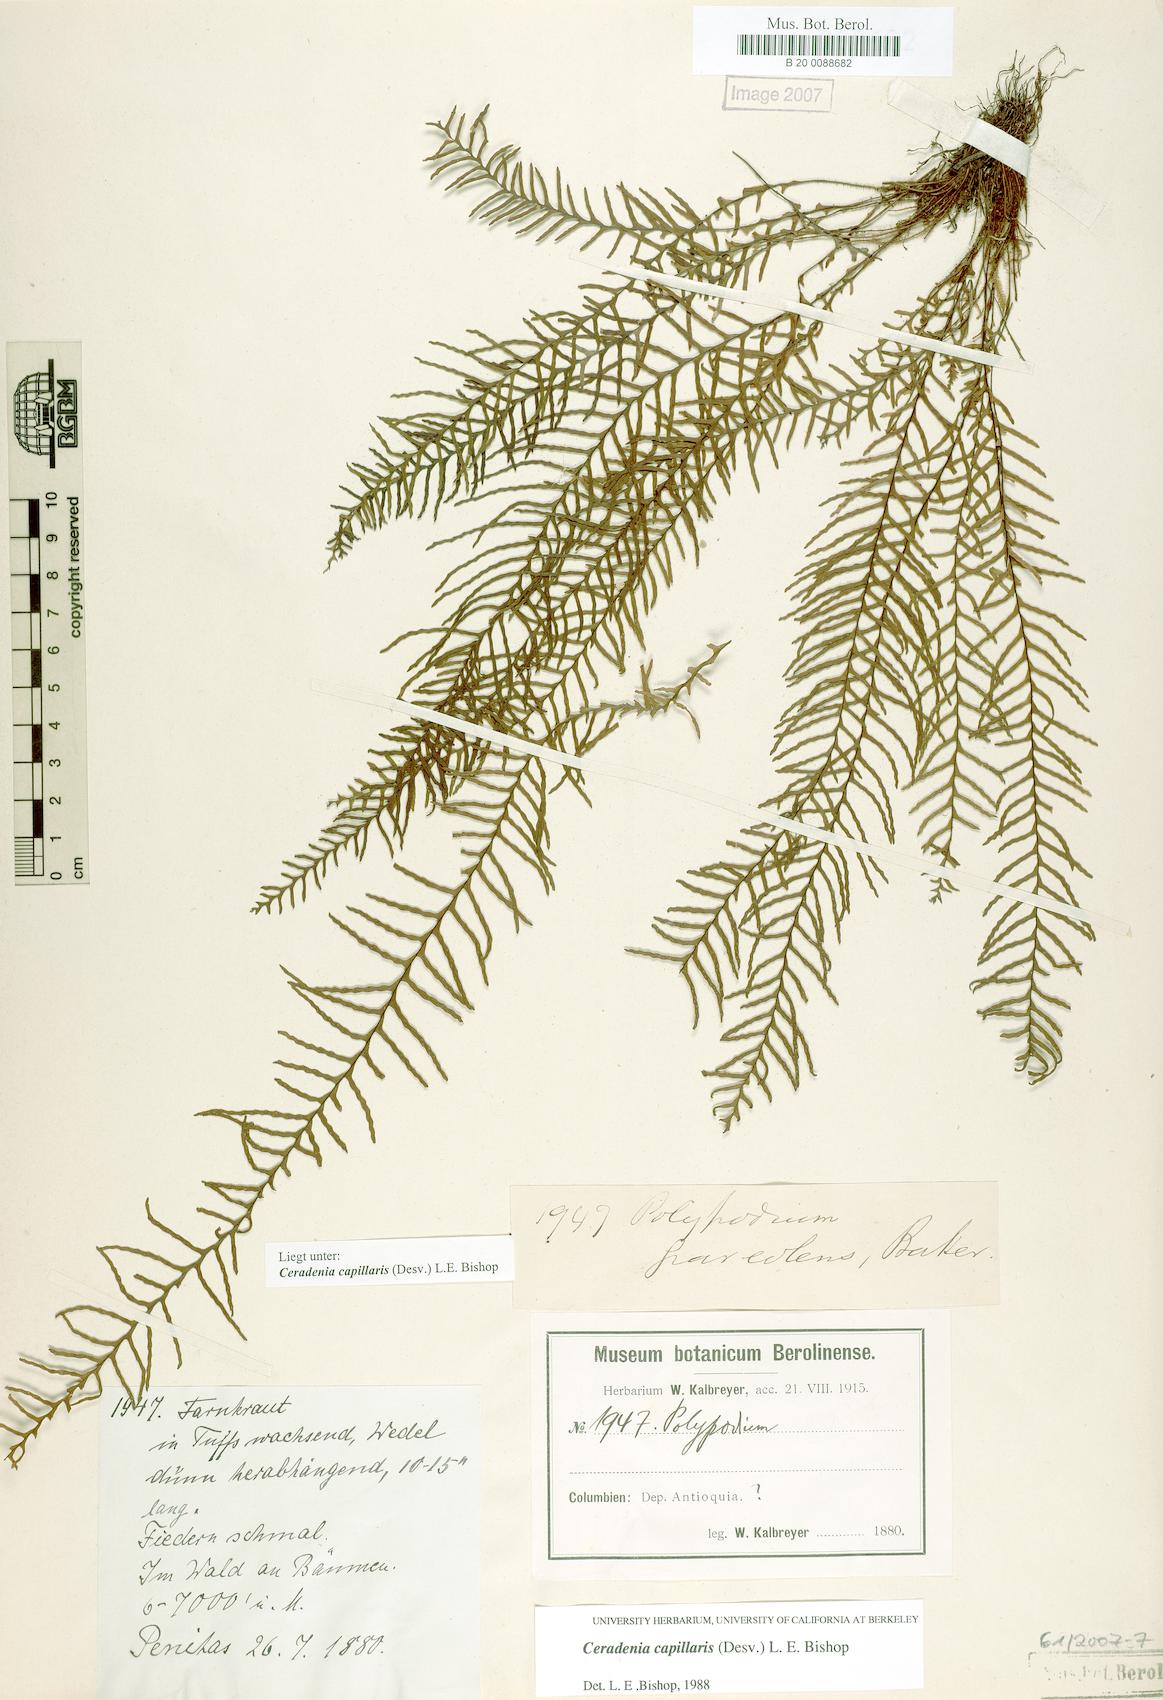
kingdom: Plantae
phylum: Tracheophyta
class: Polypodiopsida
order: Polypodiales
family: Polypodiaceae
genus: Ceradenia
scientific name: Ceradenia capillaris
